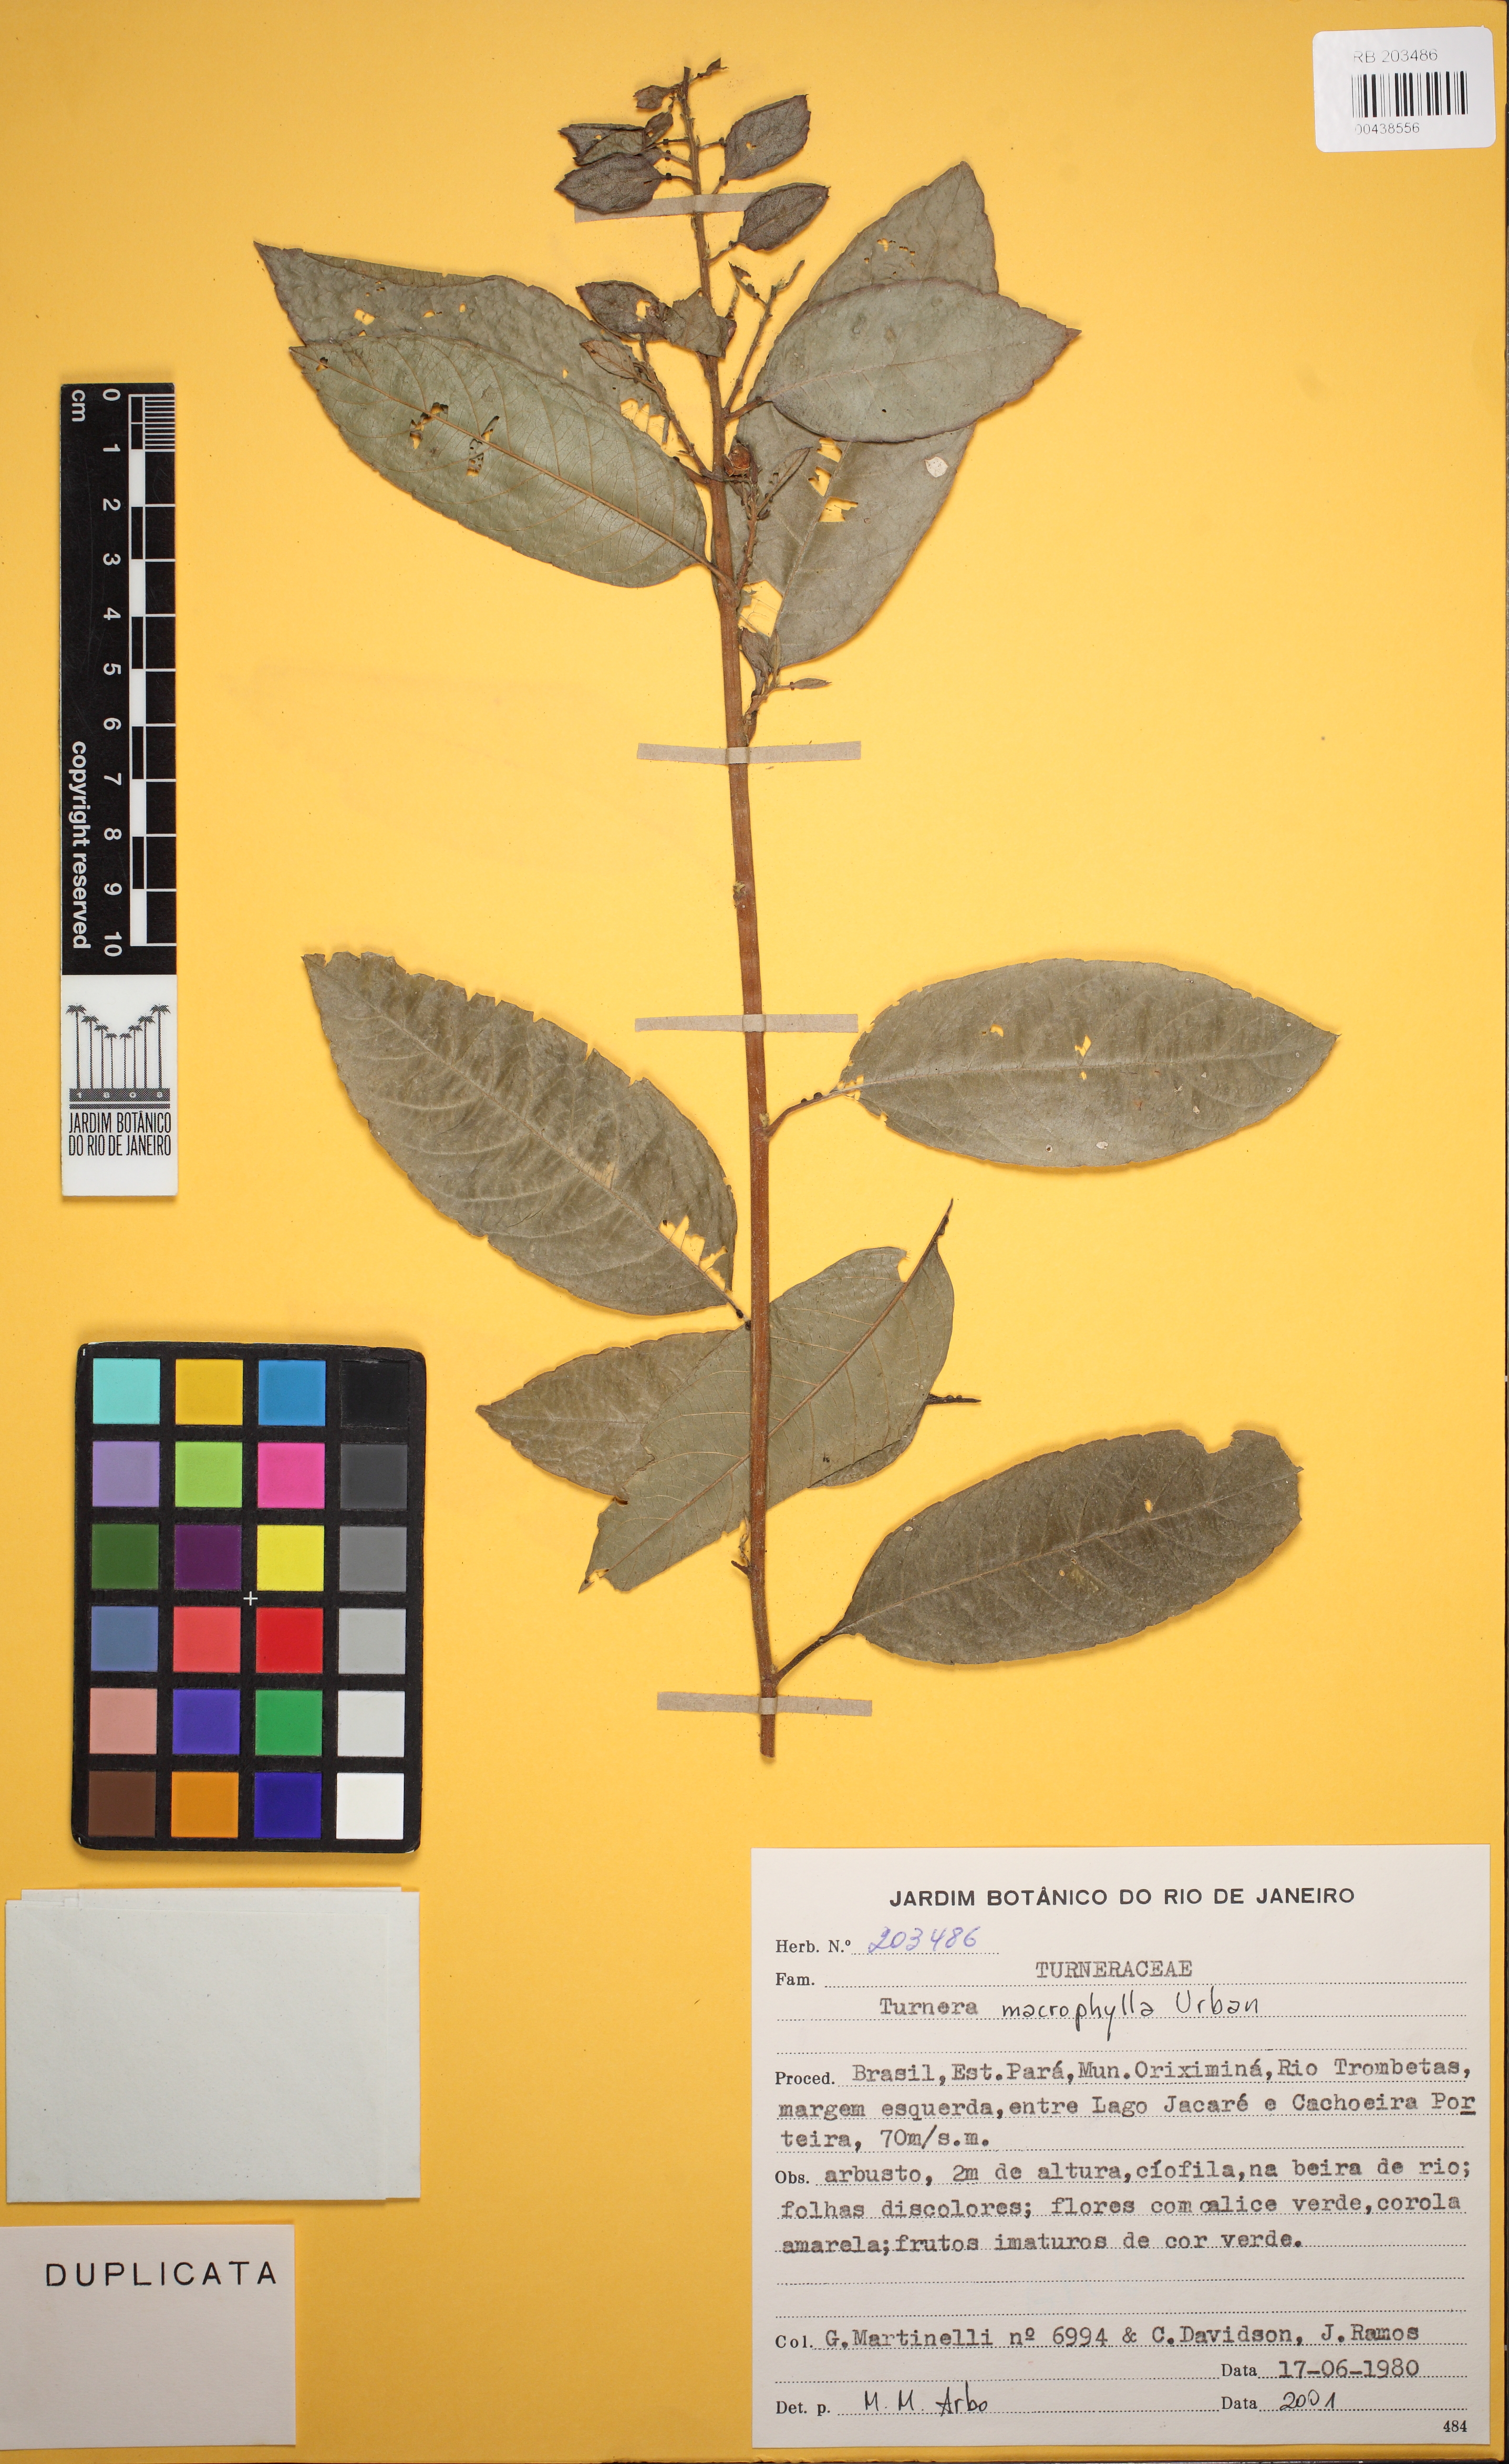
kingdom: Plantae
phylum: Tracheophyta
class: Magnoliopsida
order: Malpighiales
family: Turneraceae
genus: Turnera
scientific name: Turnera macrophylla
